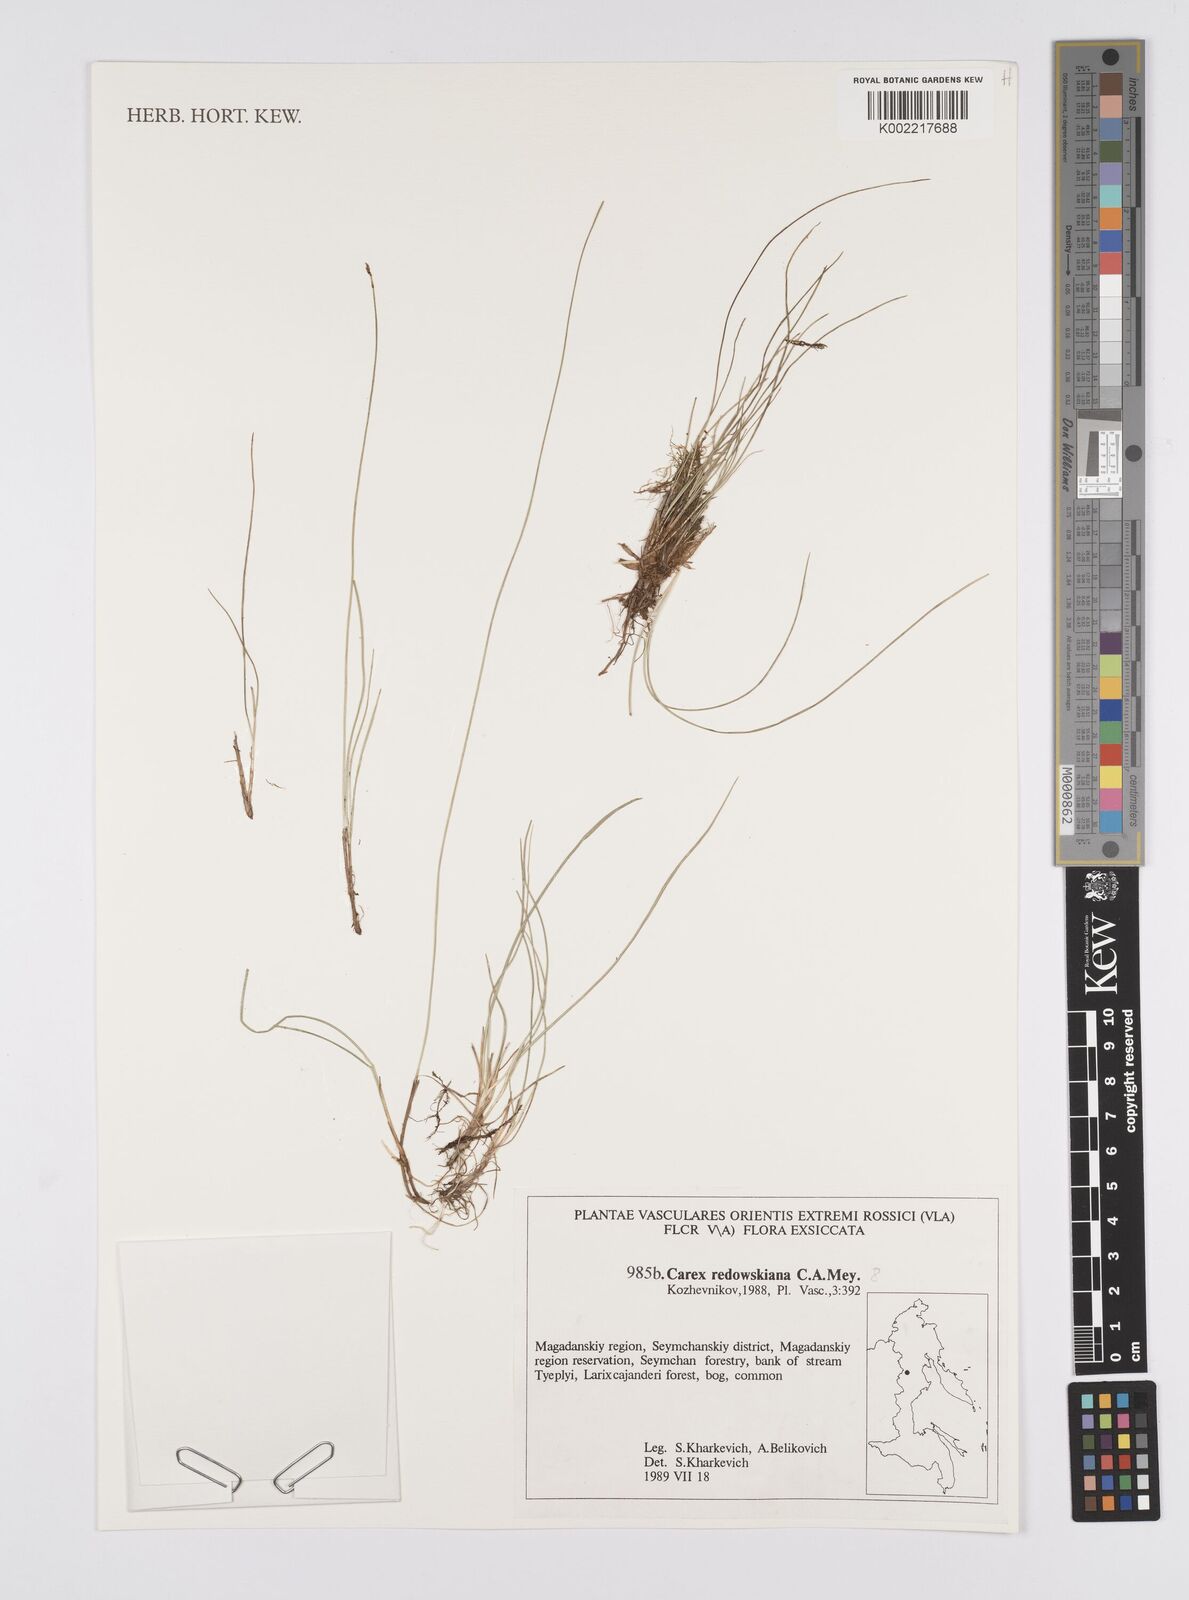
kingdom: Plantae
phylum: Tracheophyta
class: Liliopsida
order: Poales
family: Cyperaceae
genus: Carex
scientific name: Carex parallela
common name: Parallel sedge
